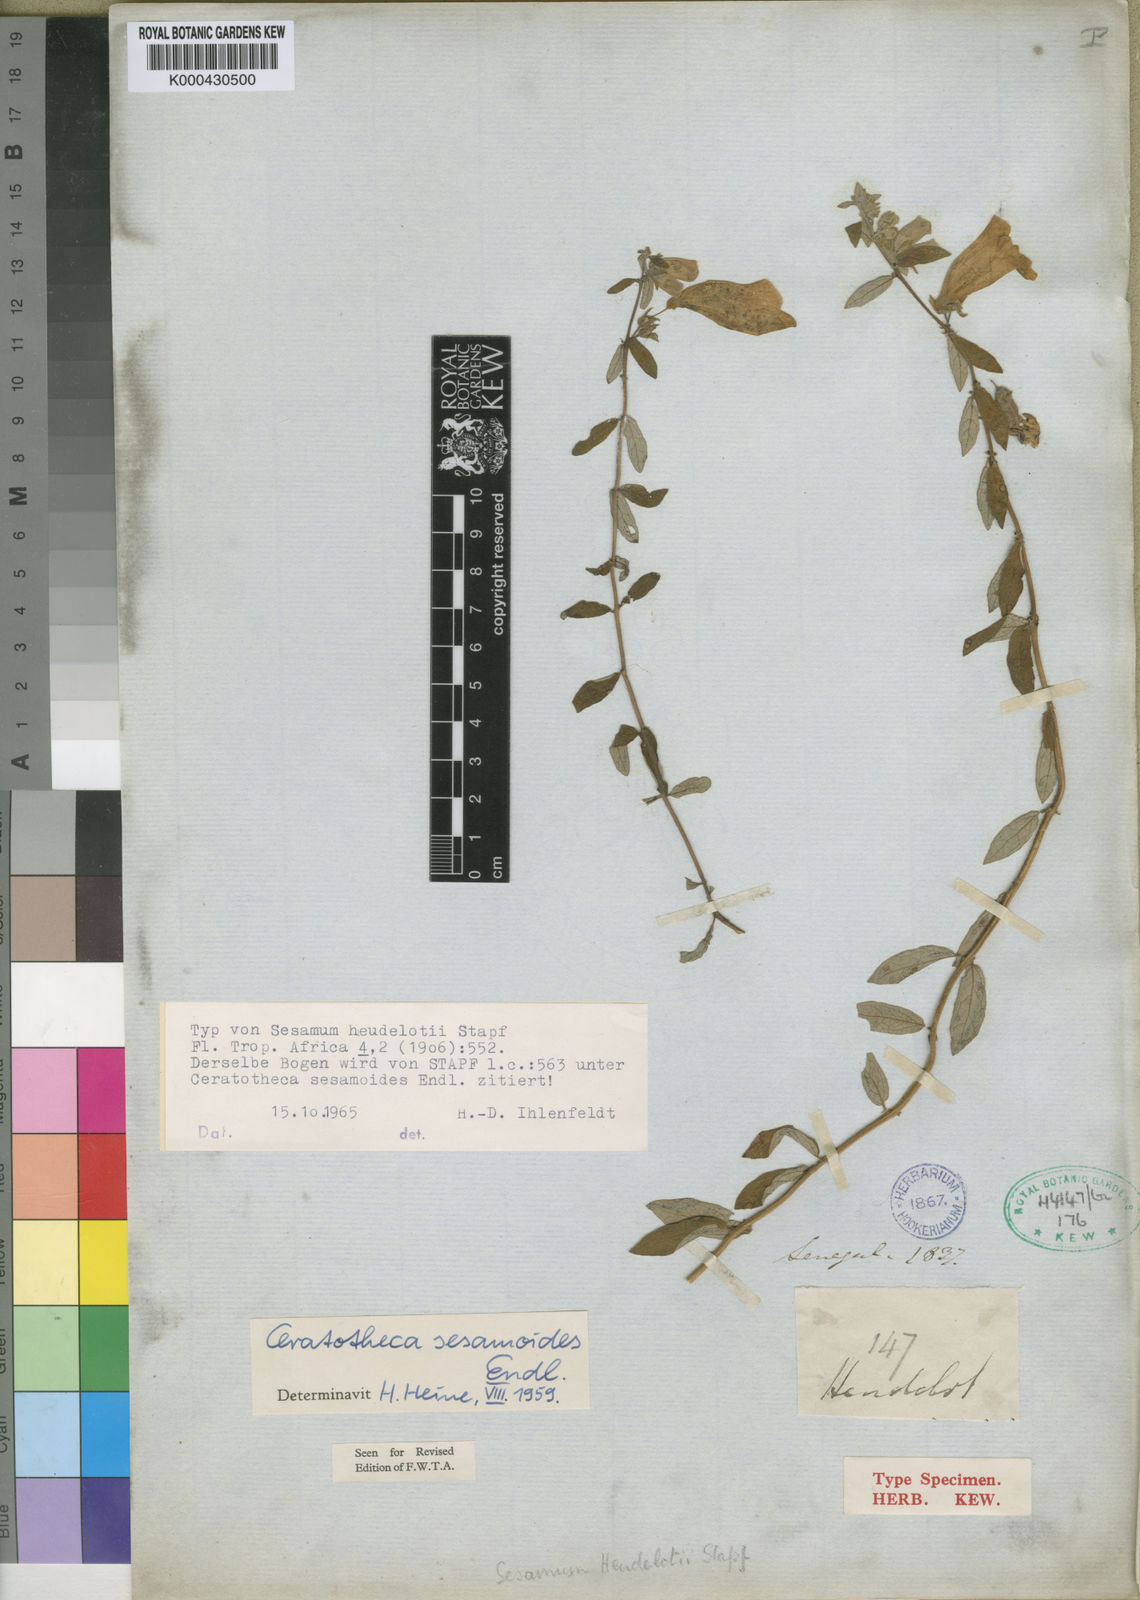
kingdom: Plantae
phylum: Tracheophyta
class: Magnoliopsida
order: Lamiales
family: Pedaliaceae
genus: Sesamum
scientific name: Sesamum sesamoides
